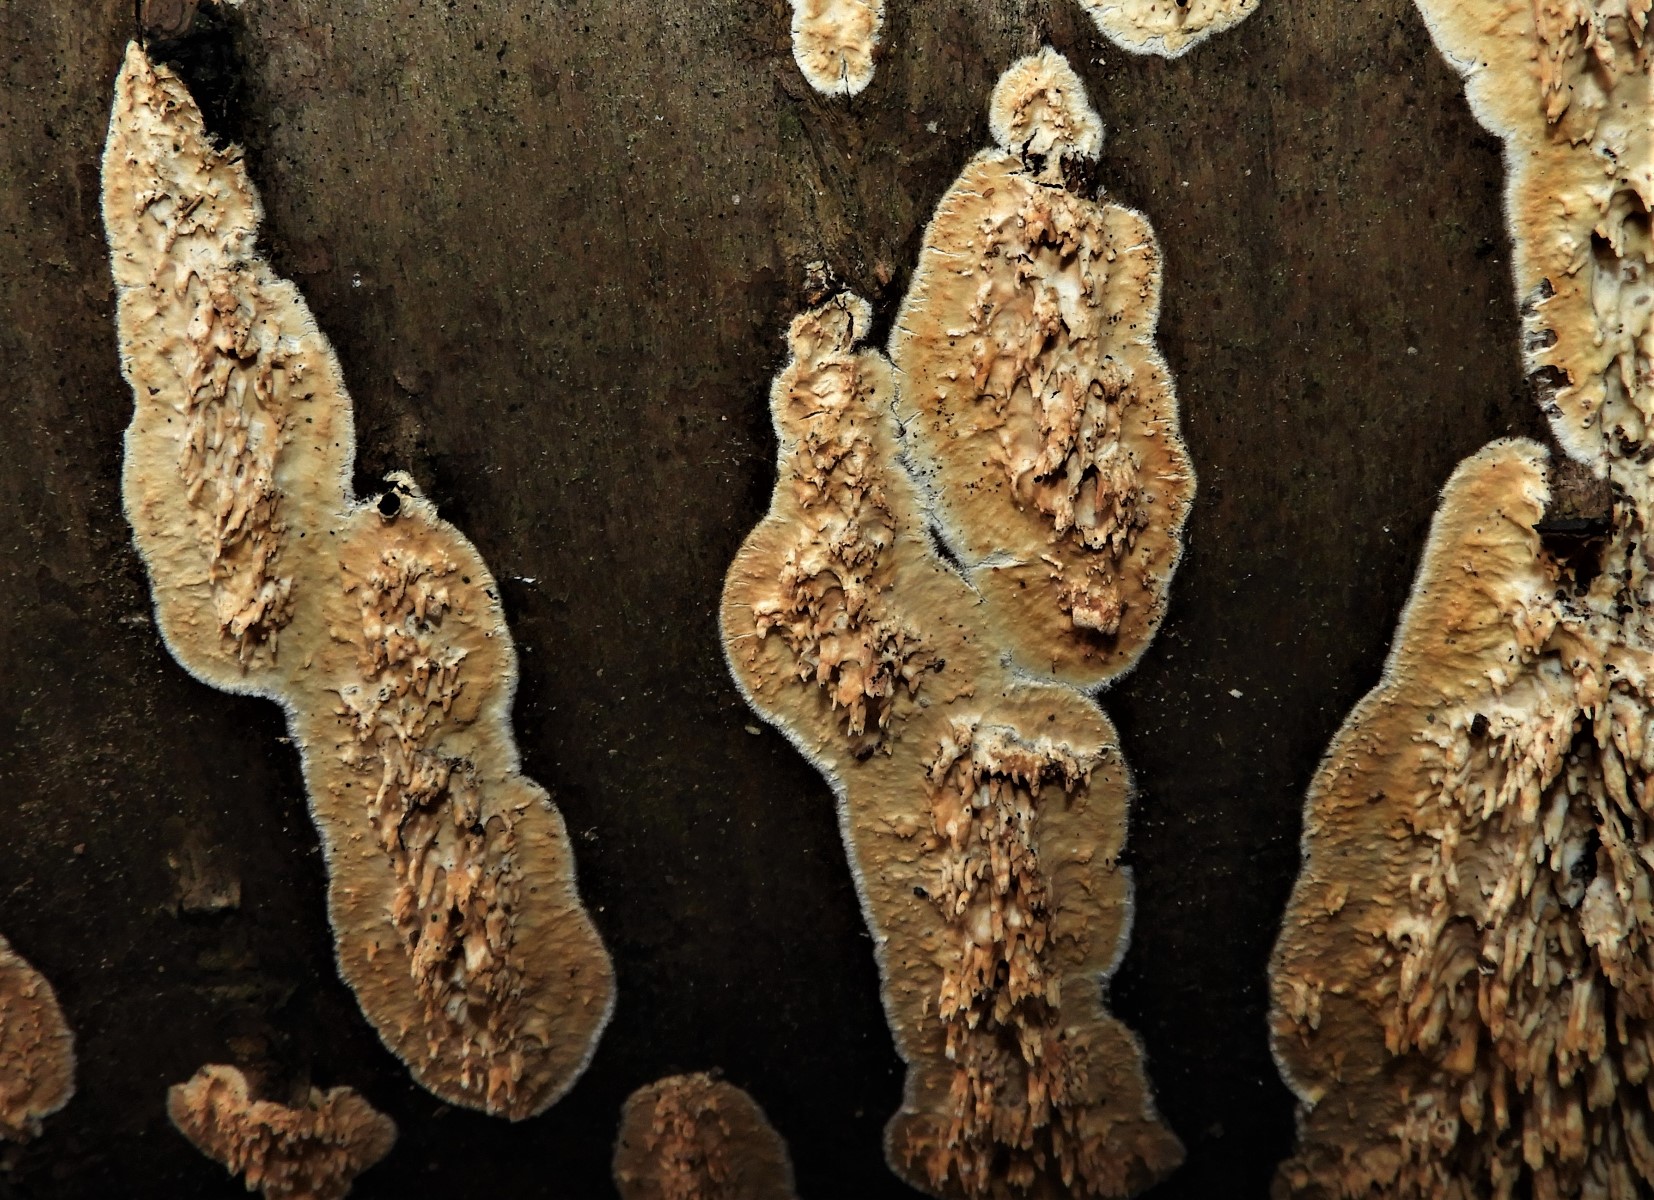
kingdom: Fungi
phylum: Basidiomycota
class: Agaricomycetes
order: Hymenochaetales
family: Schizoporaceae
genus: Xylodon
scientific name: Xylodon radula
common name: grovtandet kalkskind
